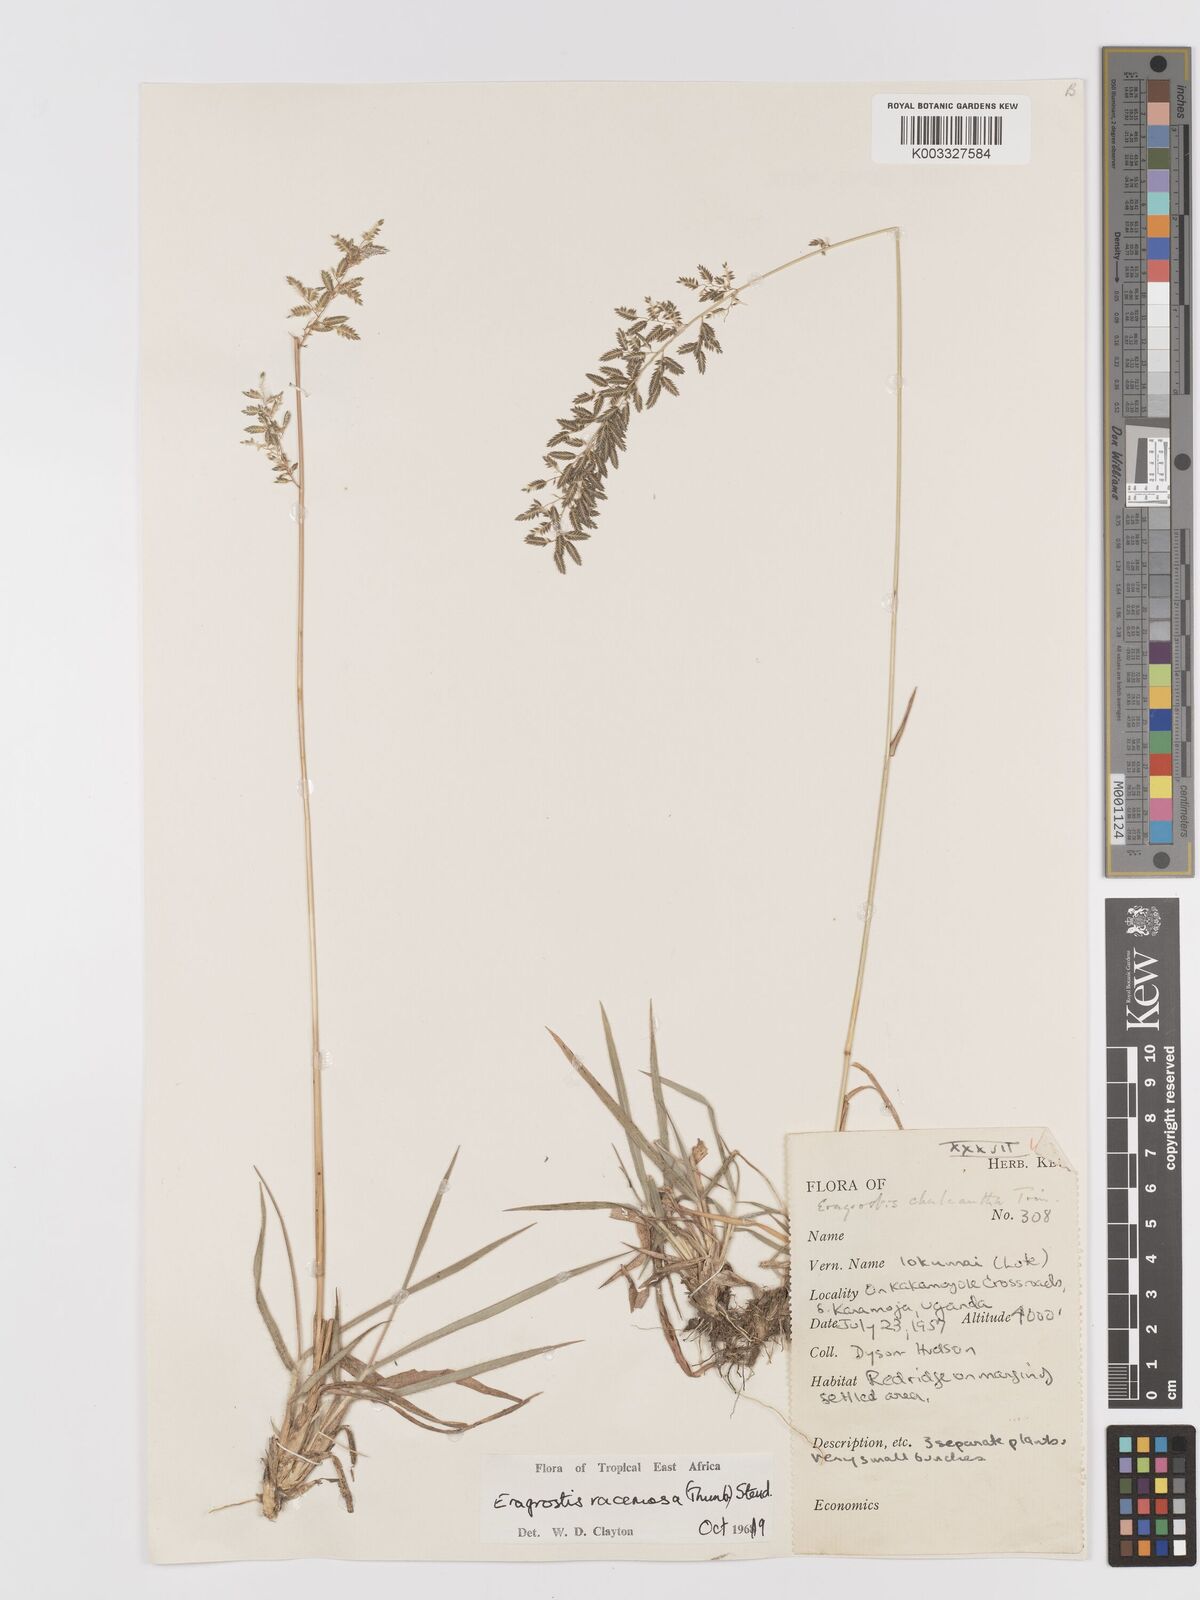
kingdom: Plantae
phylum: Tracheophyta
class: Liliopsida
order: Poales
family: Poaceae
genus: Eragrostis
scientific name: Eragrostis racemosa
